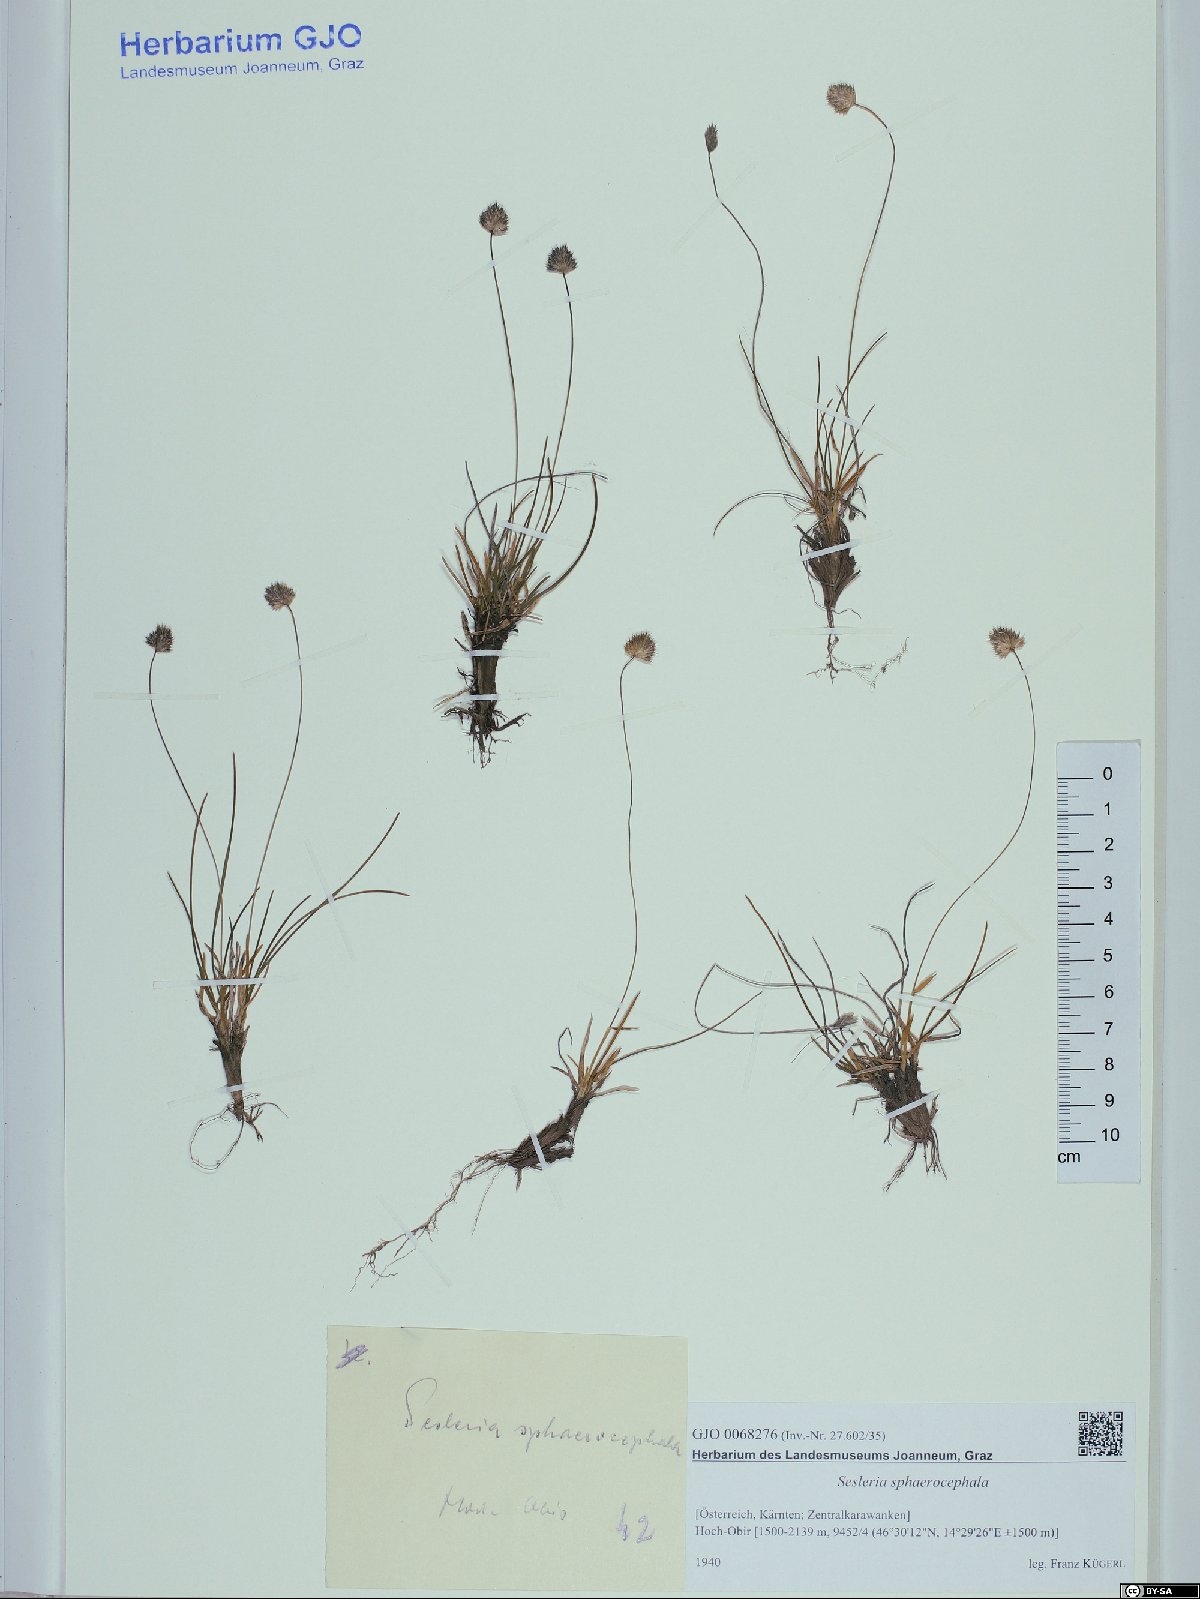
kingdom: Plantae
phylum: Tracheophyta
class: Liliopsida
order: Poales
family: Poaceae
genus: Sesleriella
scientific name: Sesleriella sphaerocephala
